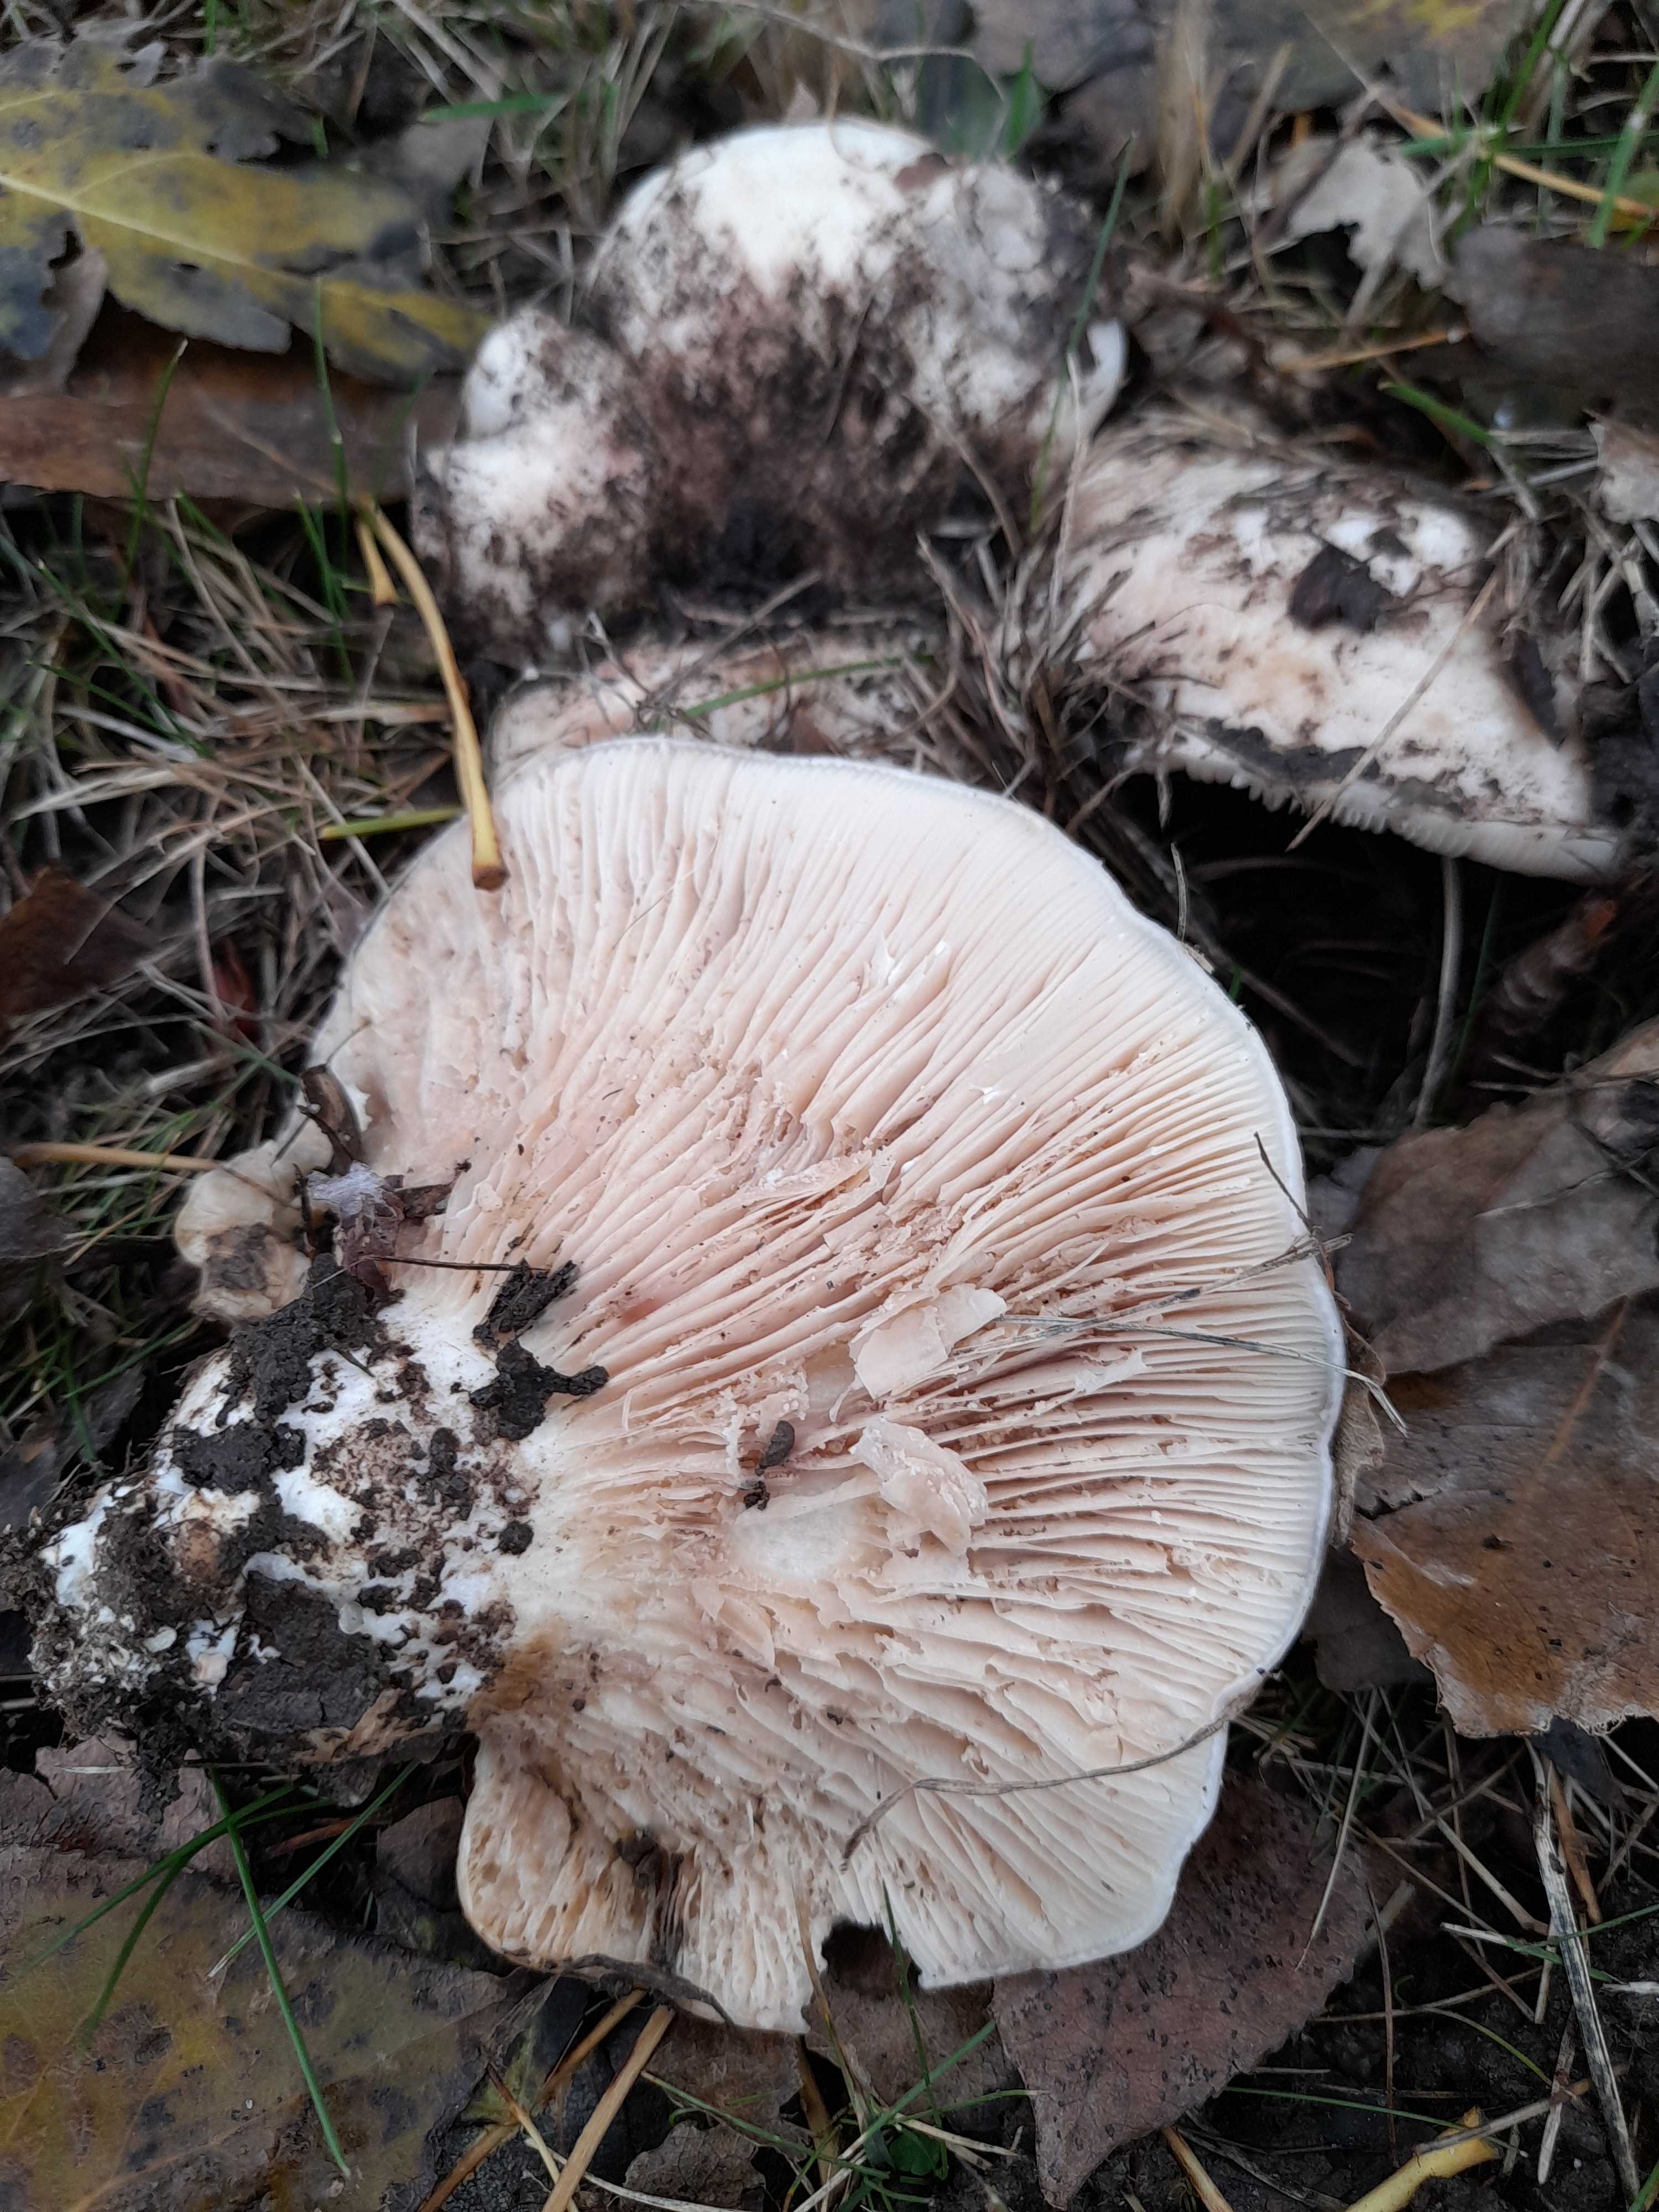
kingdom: Fungi
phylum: Basidiomycota
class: Agaricomycetes
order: Russulales
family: Russulaceae
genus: Lactarius
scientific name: Lactarius controversus
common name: rosabladet mælkehat
